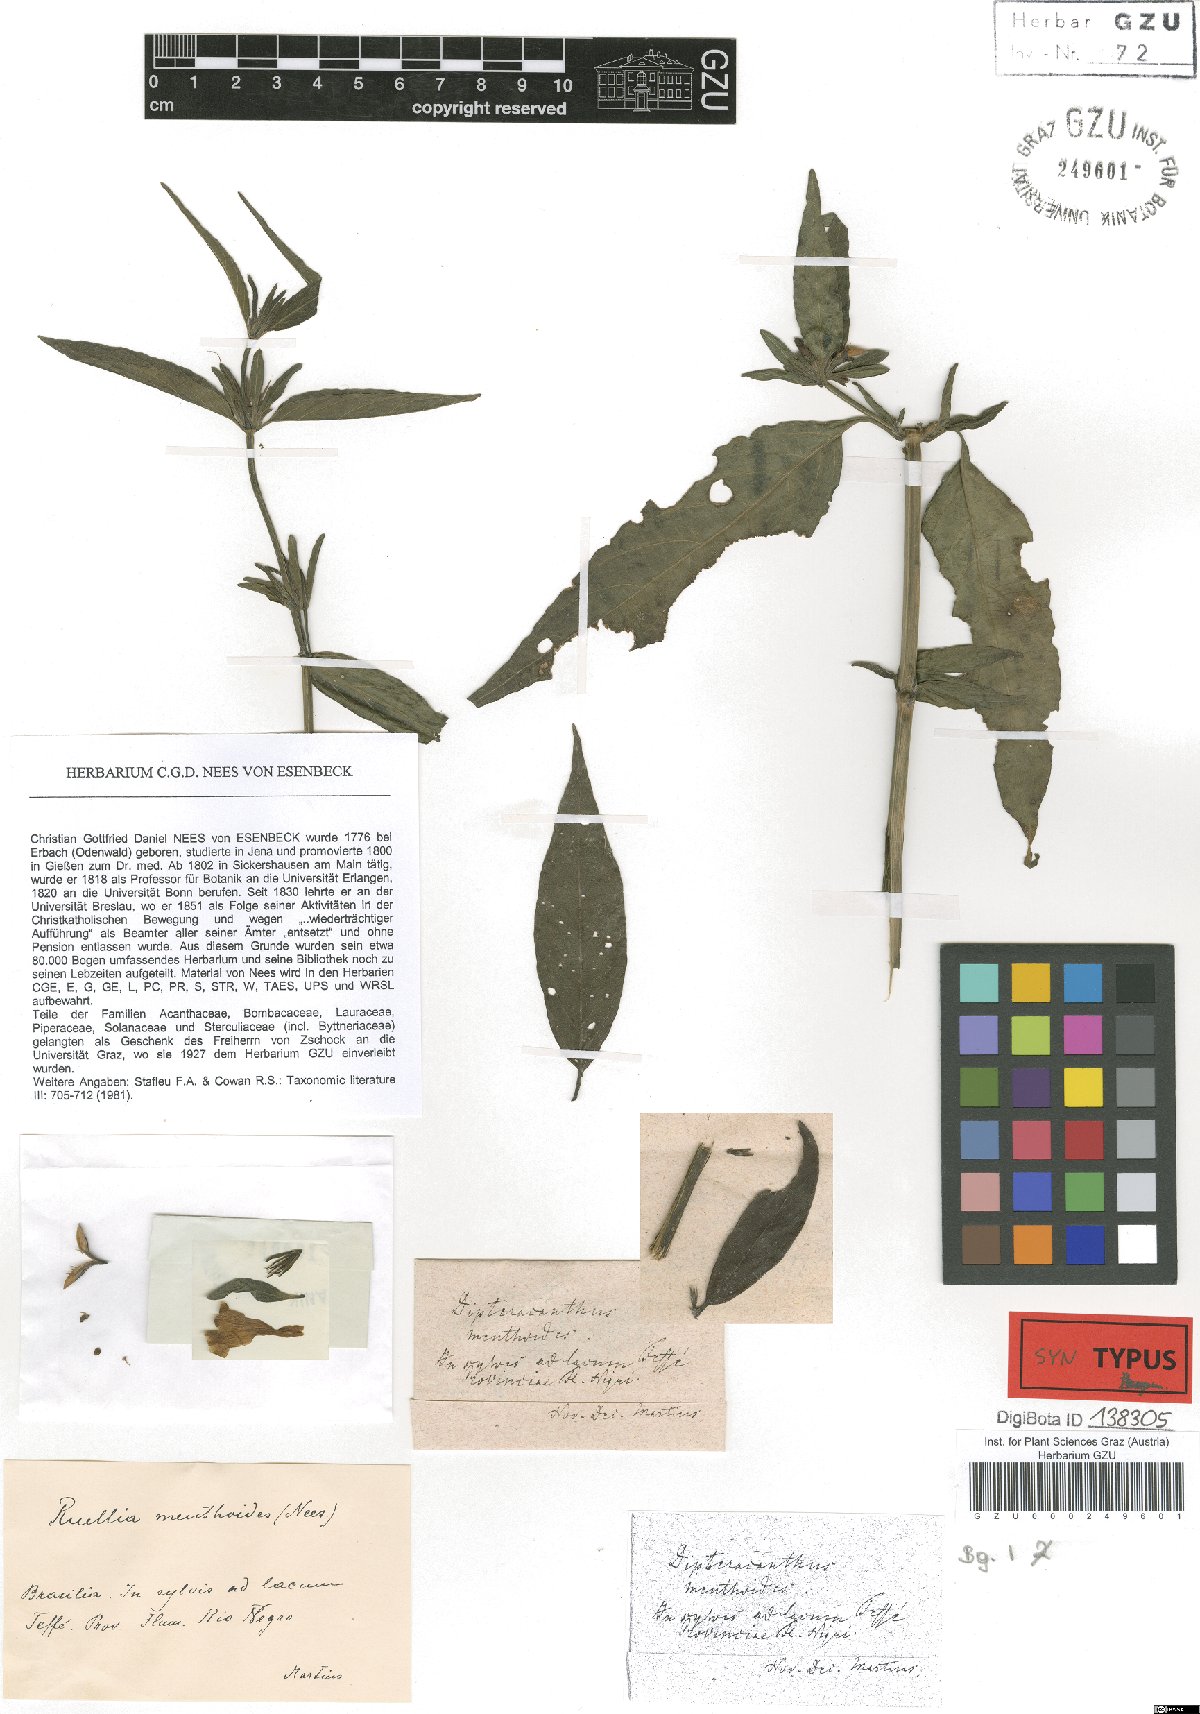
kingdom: Plantae
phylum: Tracheophyta
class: Magnoliopsida
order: Lamiales
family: Acanthaceae
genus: Ruellia
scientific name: Ruellia menthoides
